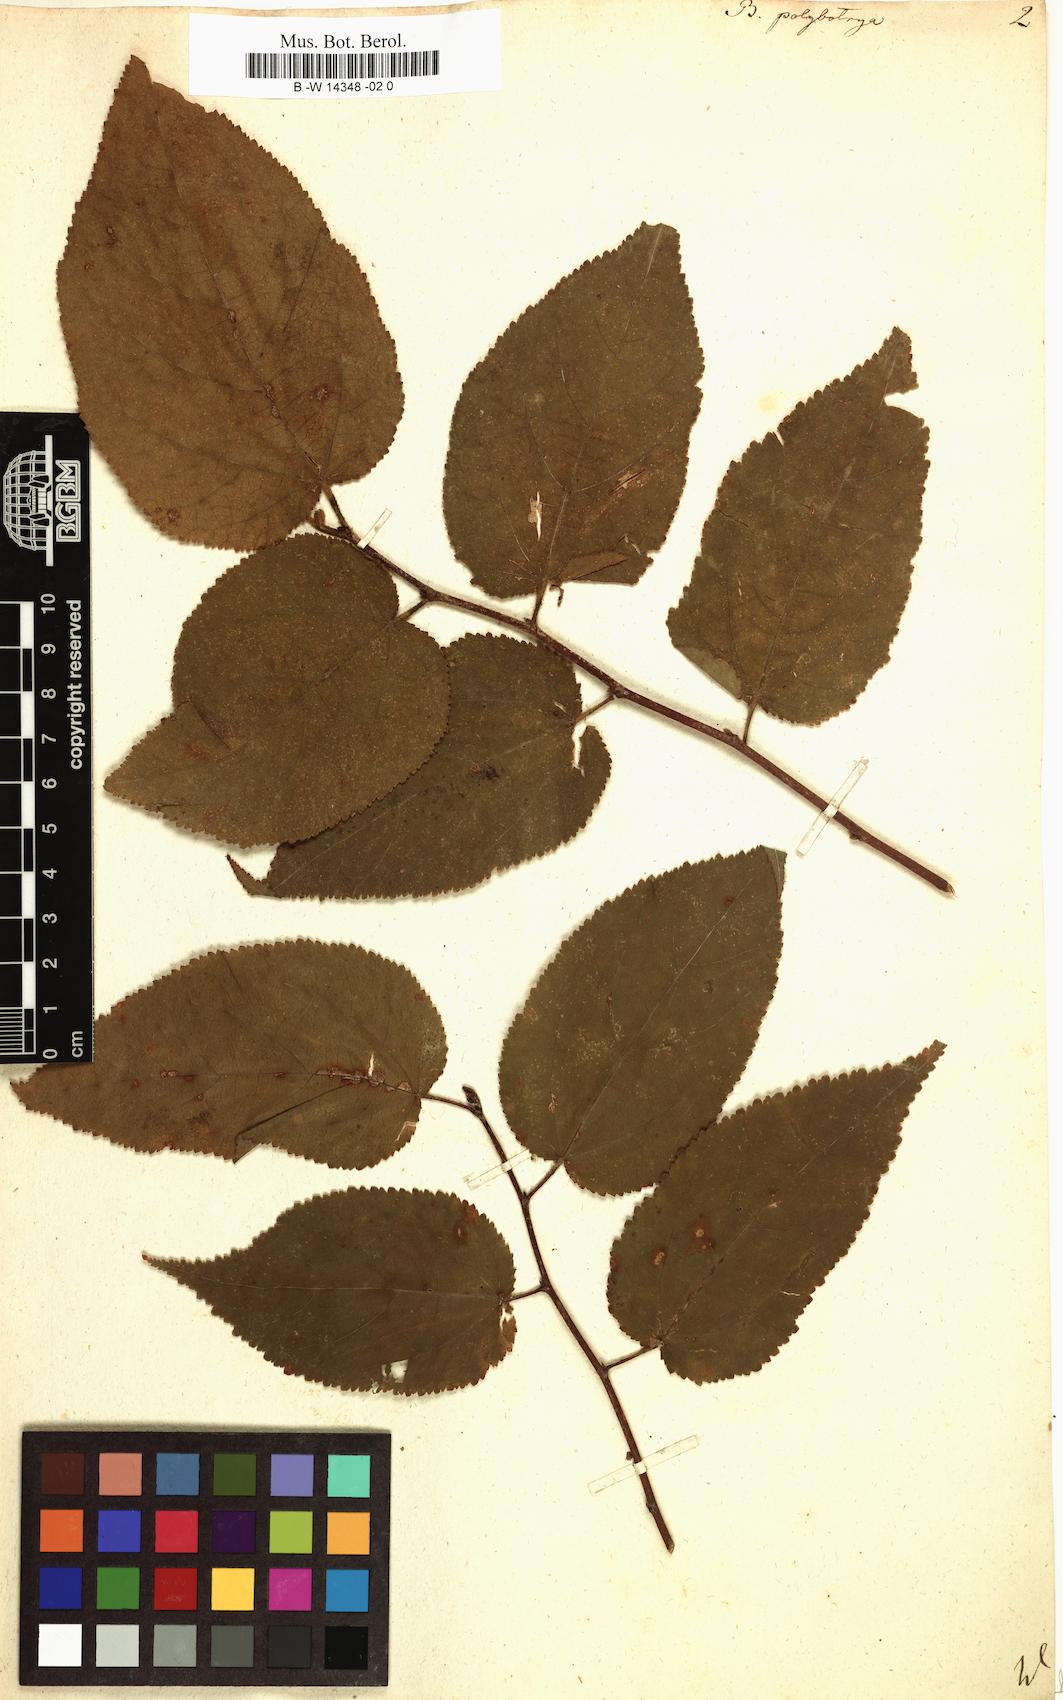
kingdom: Plantae
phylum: Tracheophyta
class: Magnoliopsida
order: Malvales
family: Malvaceae
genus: Guazuma
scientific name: Guazuma ulmifolia
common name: Bastard-cedar
